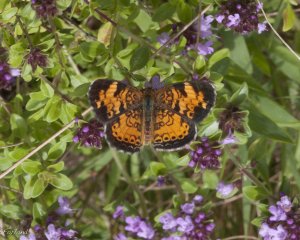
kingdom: Animalia
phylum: Arthropoda
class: Insecta
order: Lepidoptera
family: Nymphalidae
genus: Phyciodes
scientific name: Phyciodes tharos
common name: Pearl Crescent
